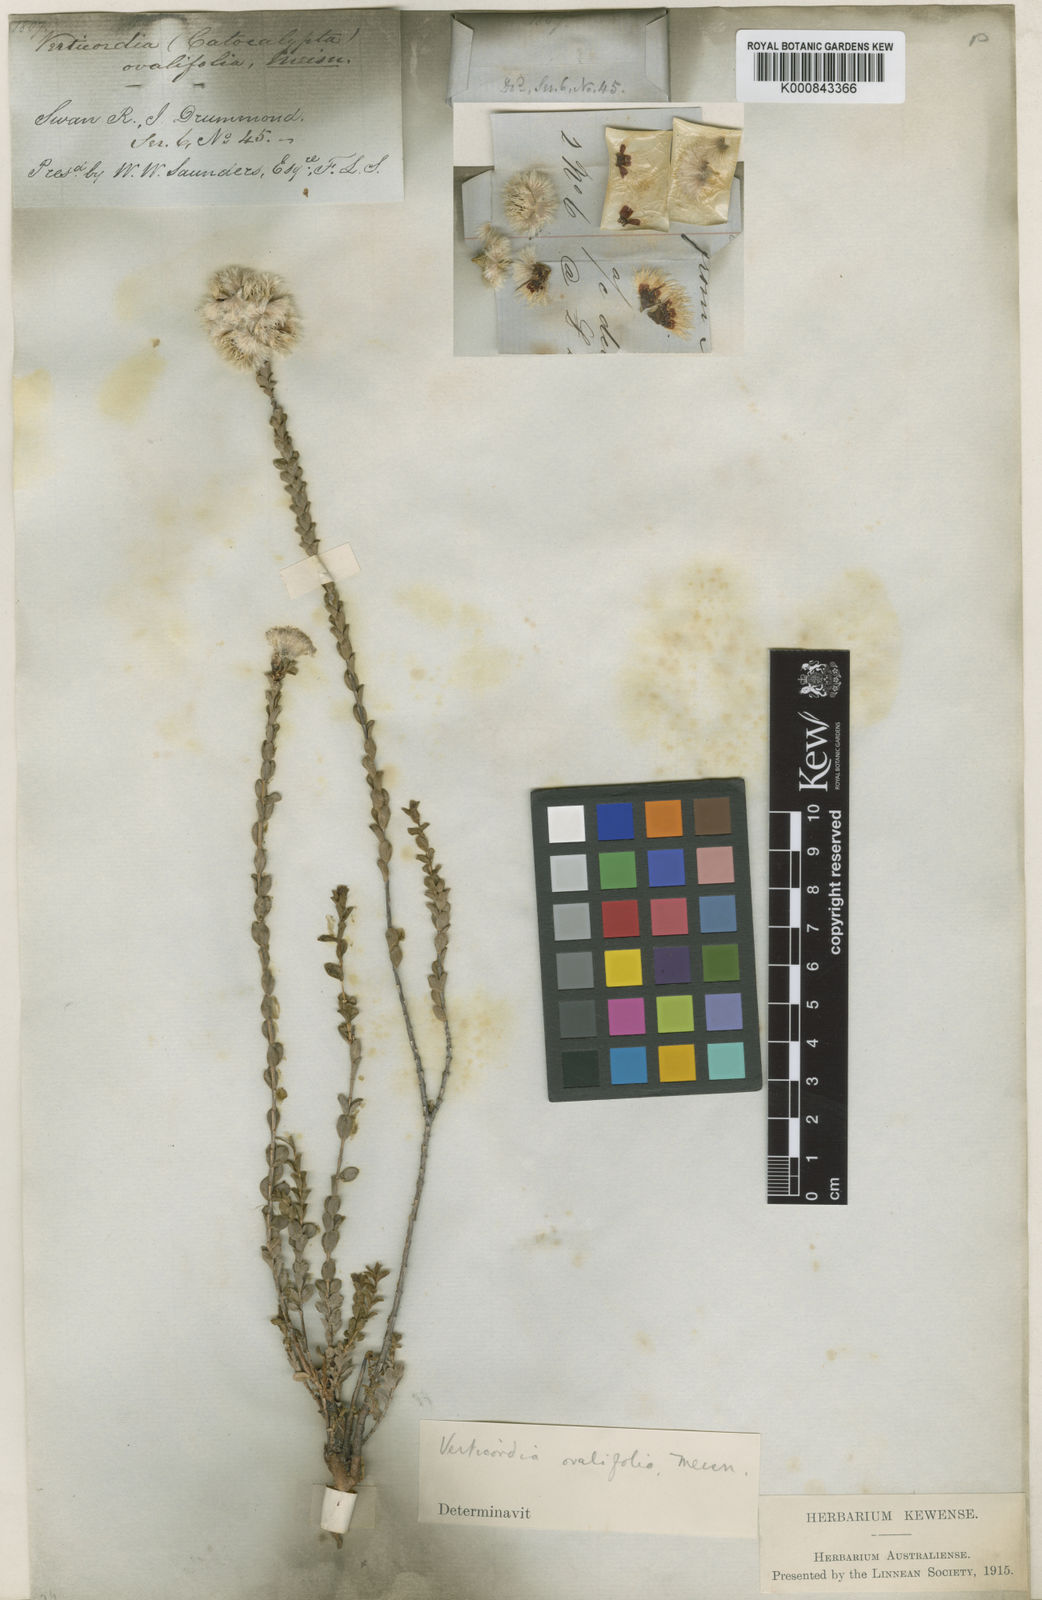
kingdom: Plantae
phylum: Tracheophyta
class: Magnoliopsida
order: Myrtales
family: Myrtaceae
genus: Verticordia
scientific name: Verticordia ovalifolia
